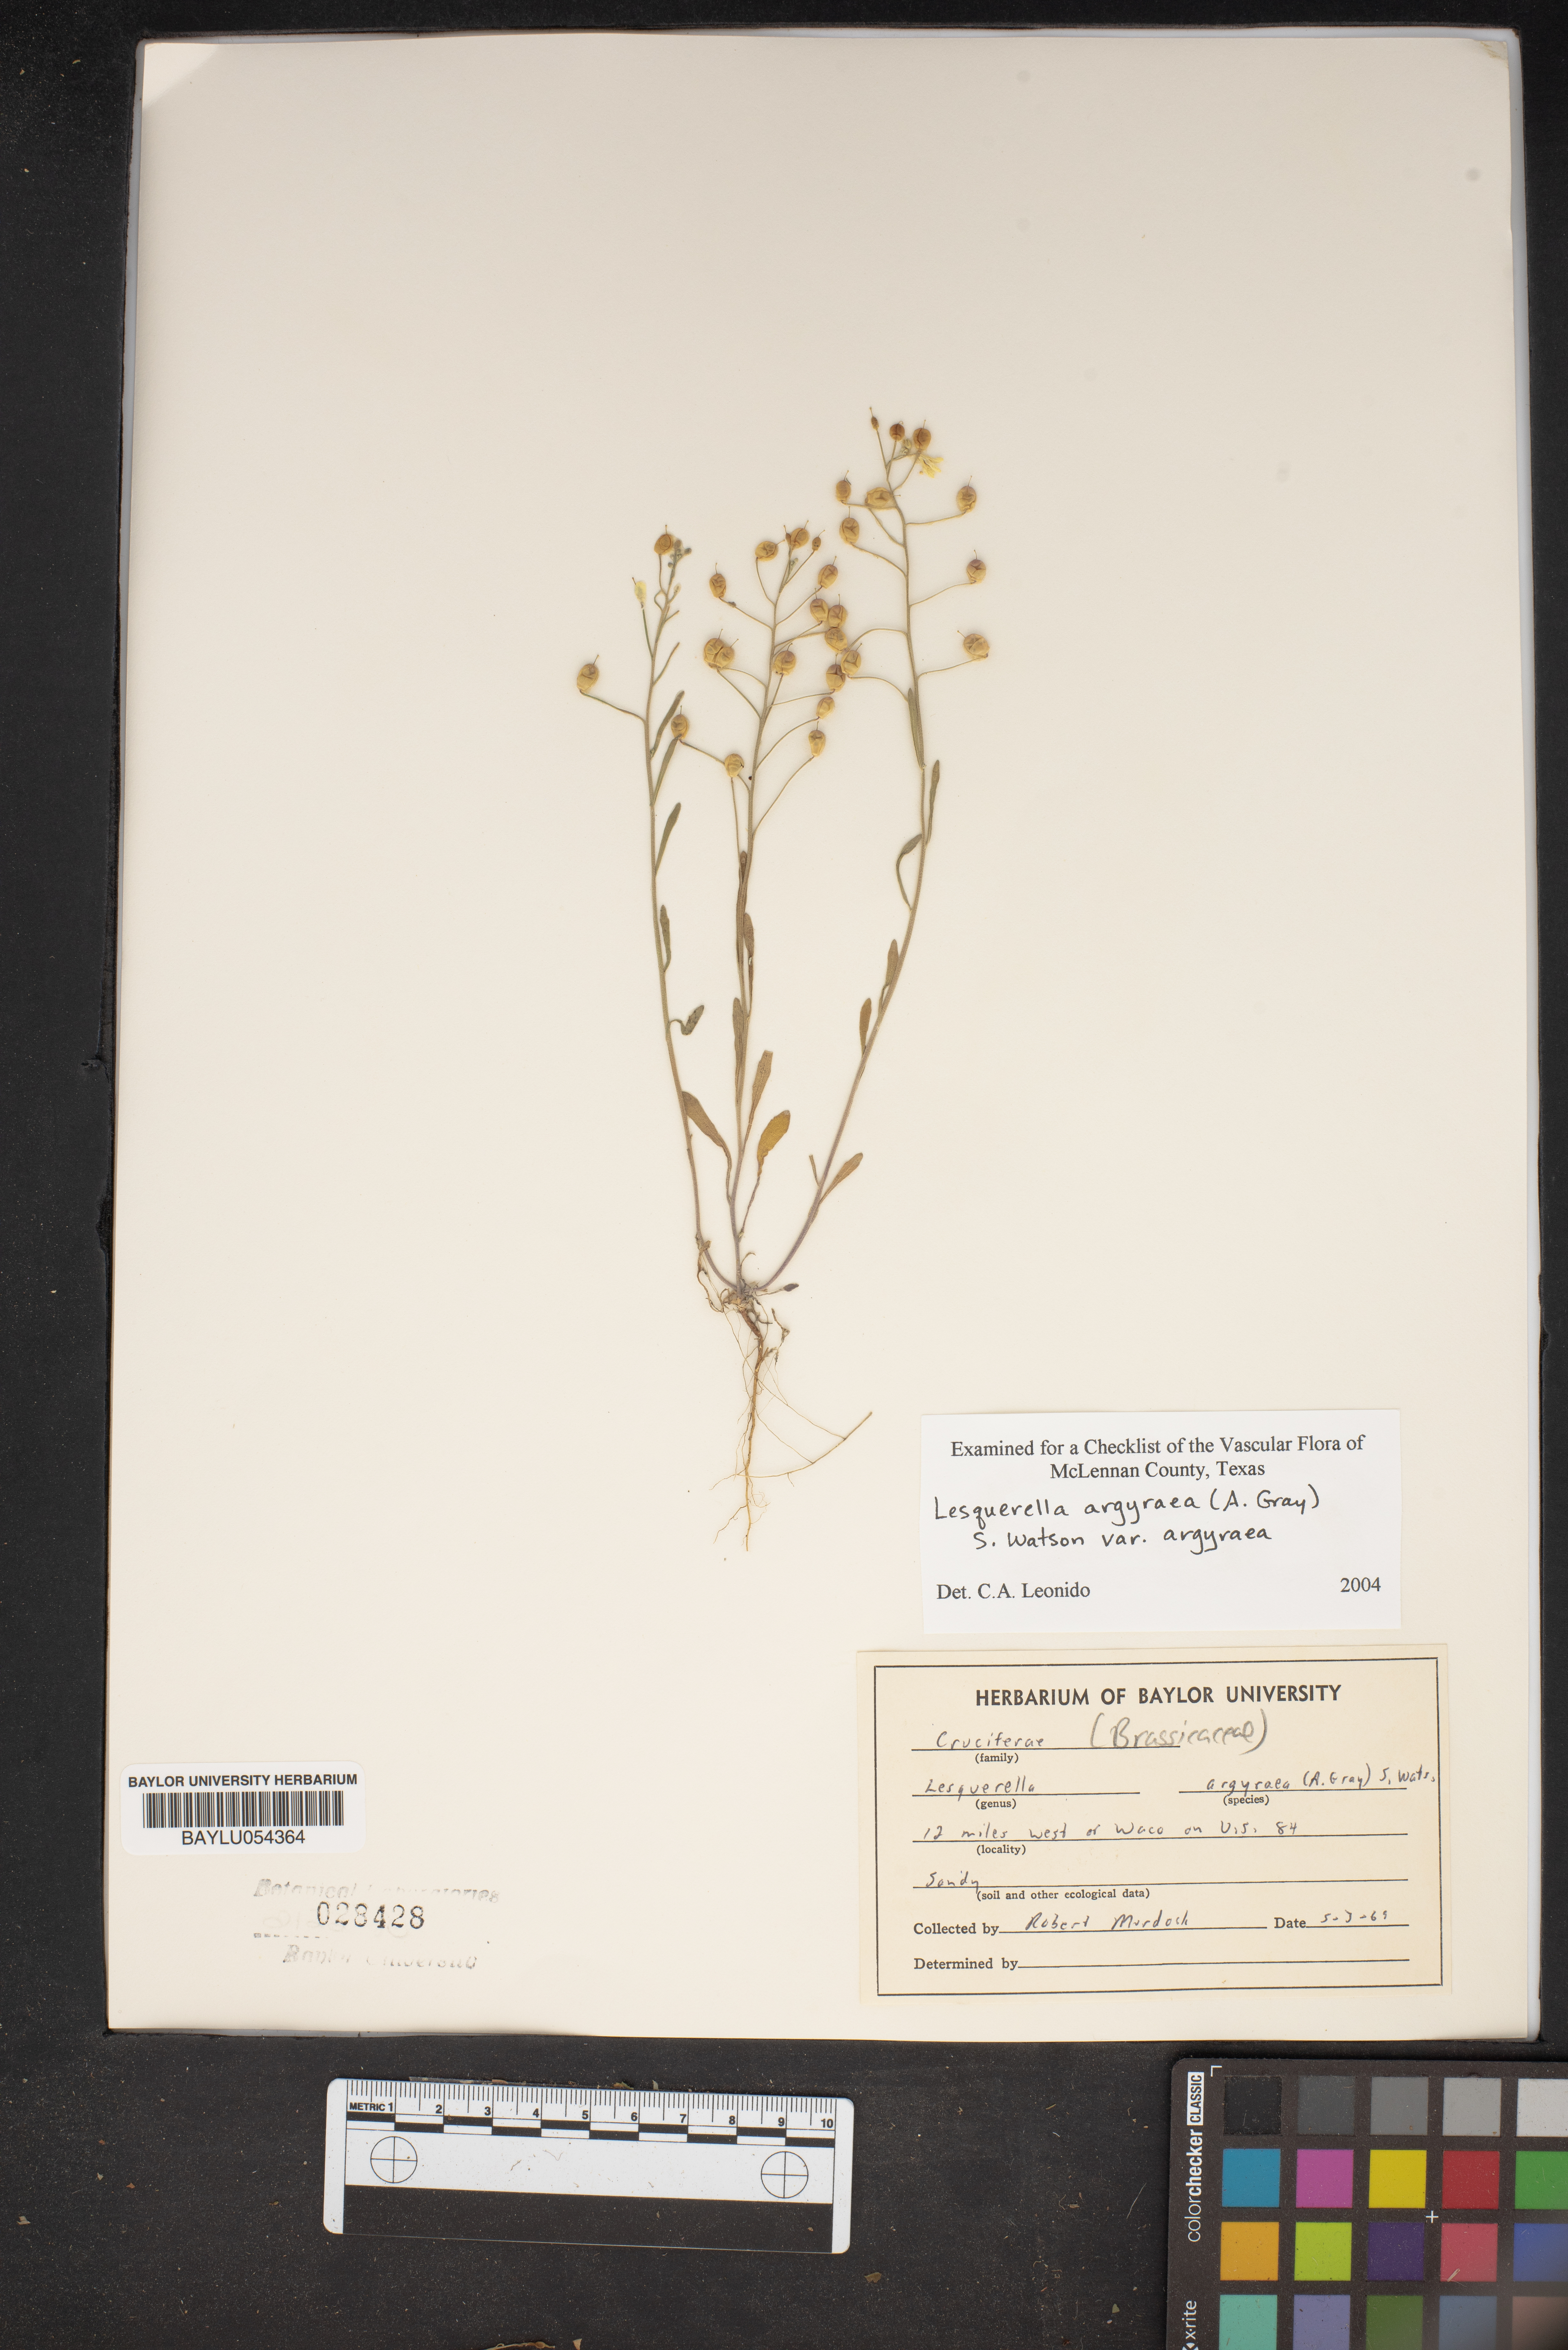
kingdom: Plantae
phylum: Tracheophyta
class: Magnoliopsida
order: Brassicales
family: Brassicaceae
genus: Physaria
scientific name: Physaria argyraea
